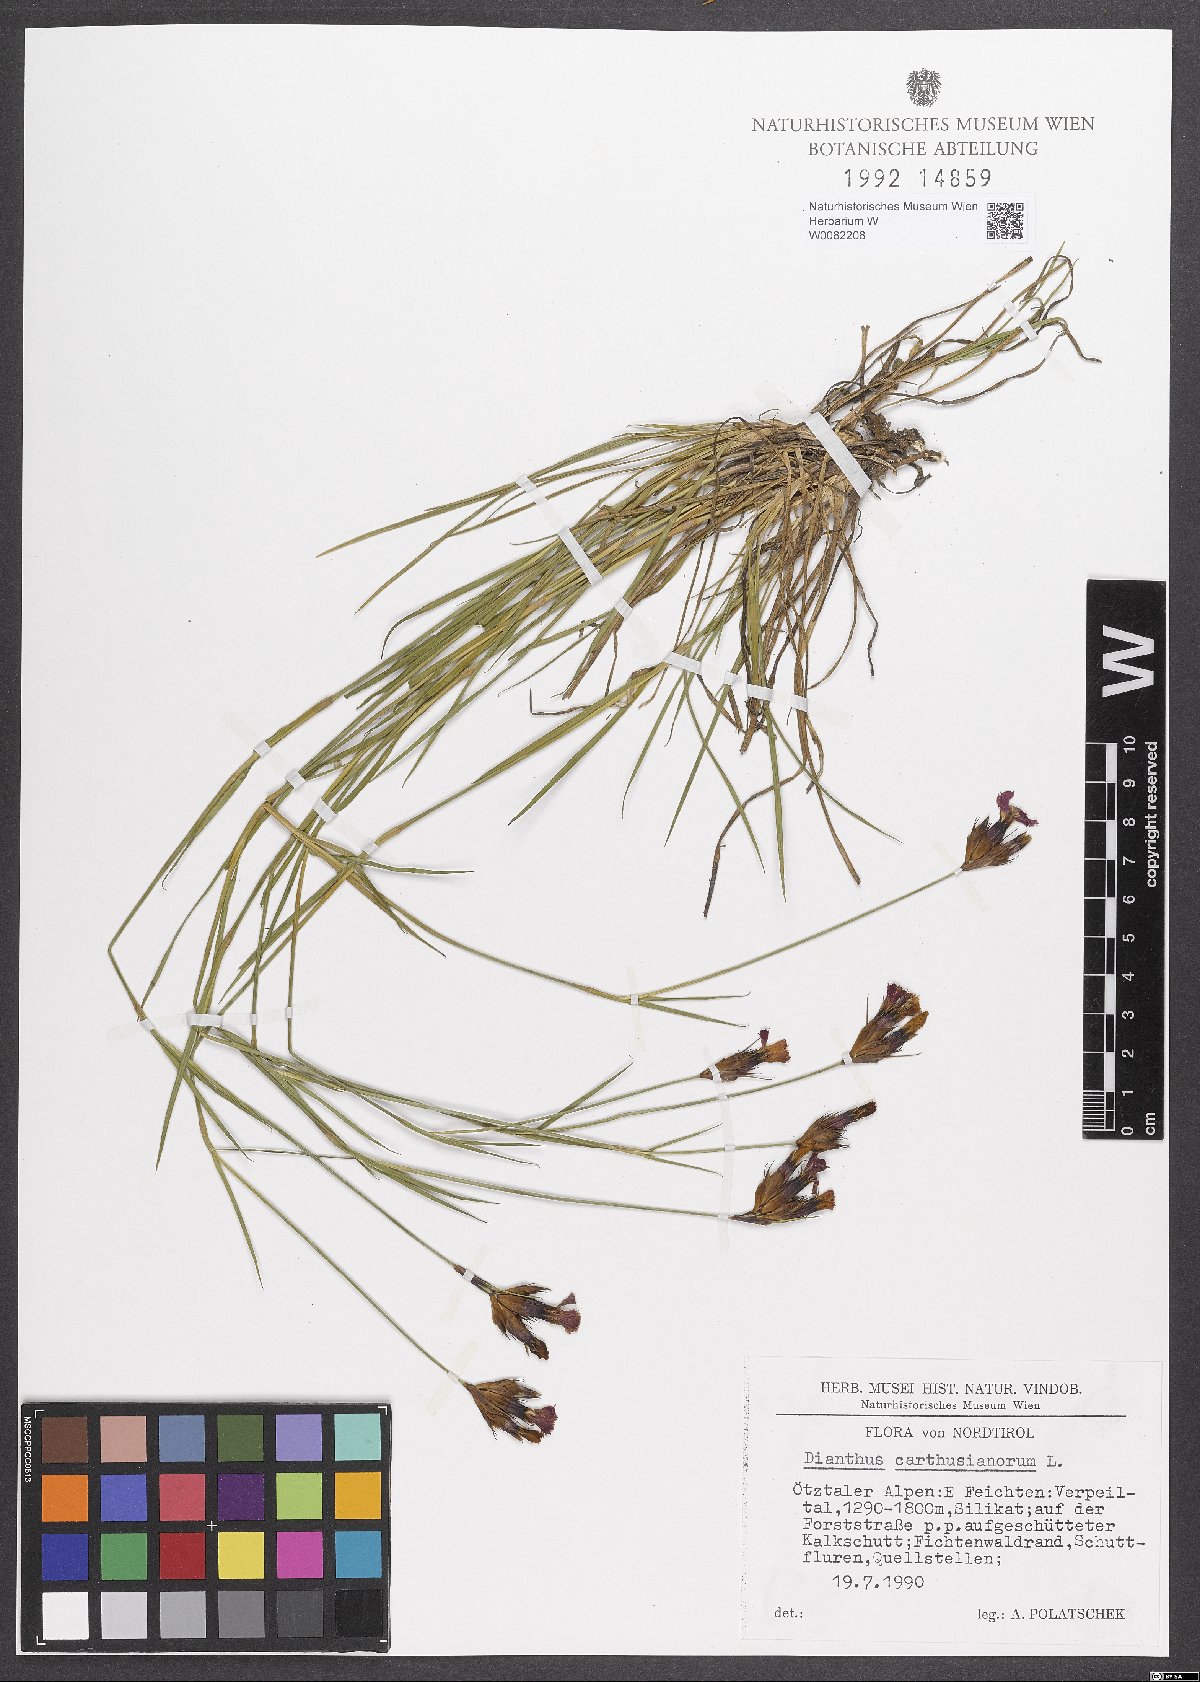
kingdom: Plantae
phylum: Tracheophyta
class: Magnoliopsida
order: Caryophyllales
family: Caryophyllaceae
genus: Dianthus
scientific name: Dianthus carthusianorum
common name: Carthusian pink
